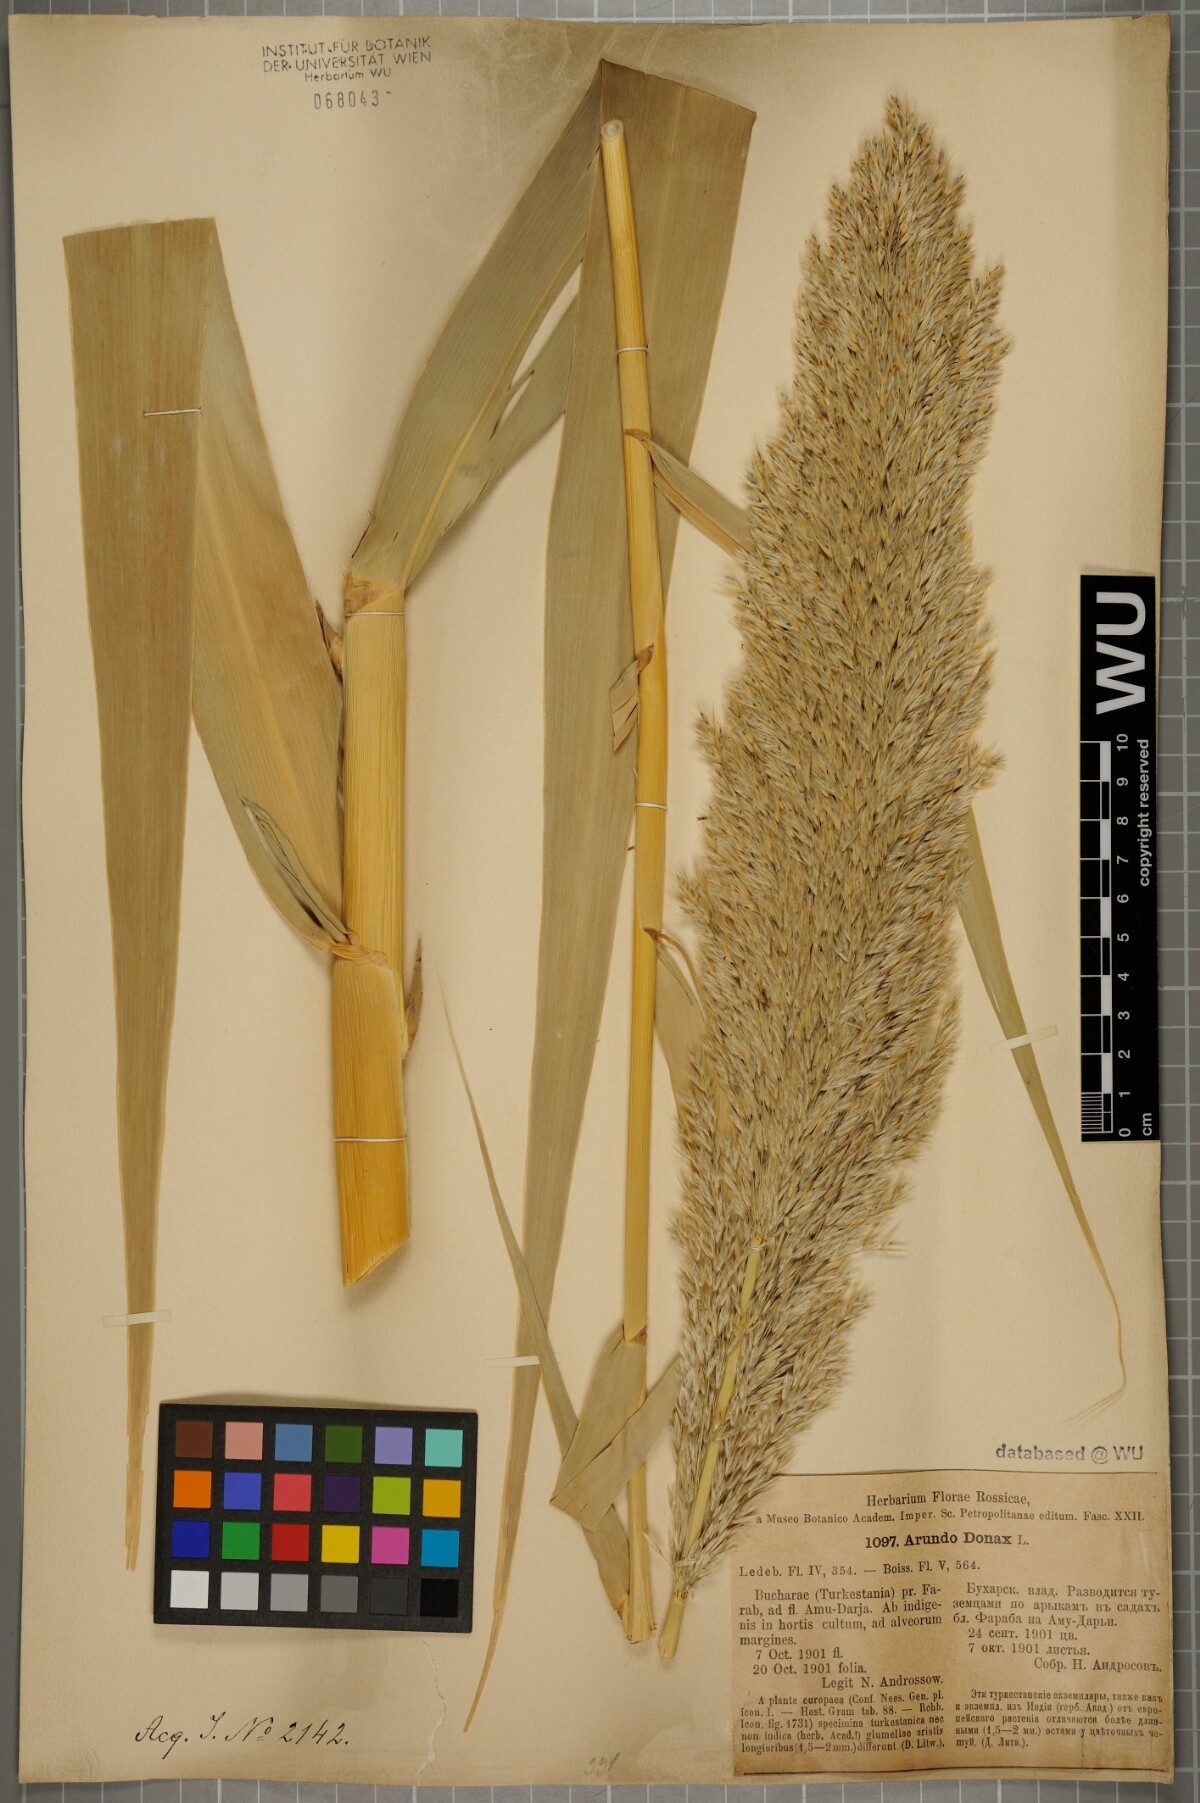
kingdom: Plantae
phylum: Tracheophyta
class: Liliopsida
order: Poales
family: Poaceae
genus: Arundo
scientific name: Arundo donax
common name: Giant reed
